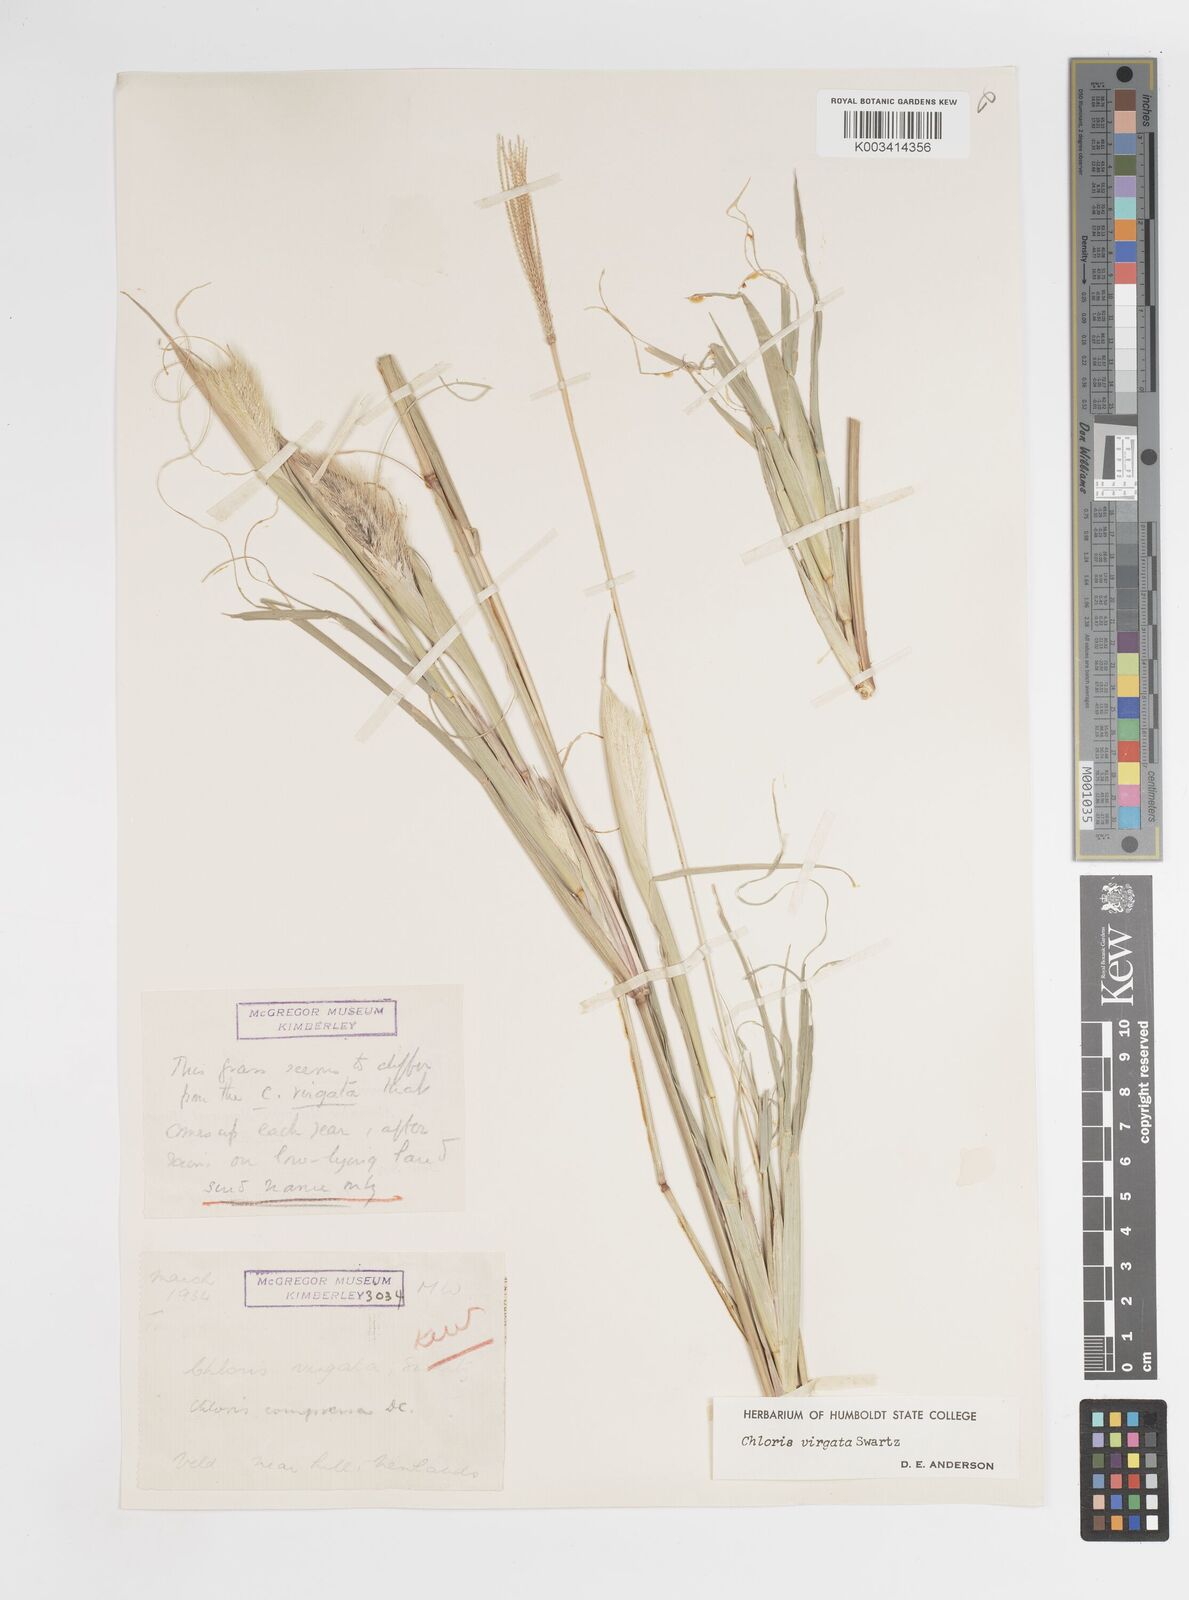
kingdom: Plantae
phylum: Tracheophyta
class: Liliopsida
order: Poales
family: Poaceae
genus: Chloris
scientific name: Chloris virgata
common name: Feathery rhodes-grass
